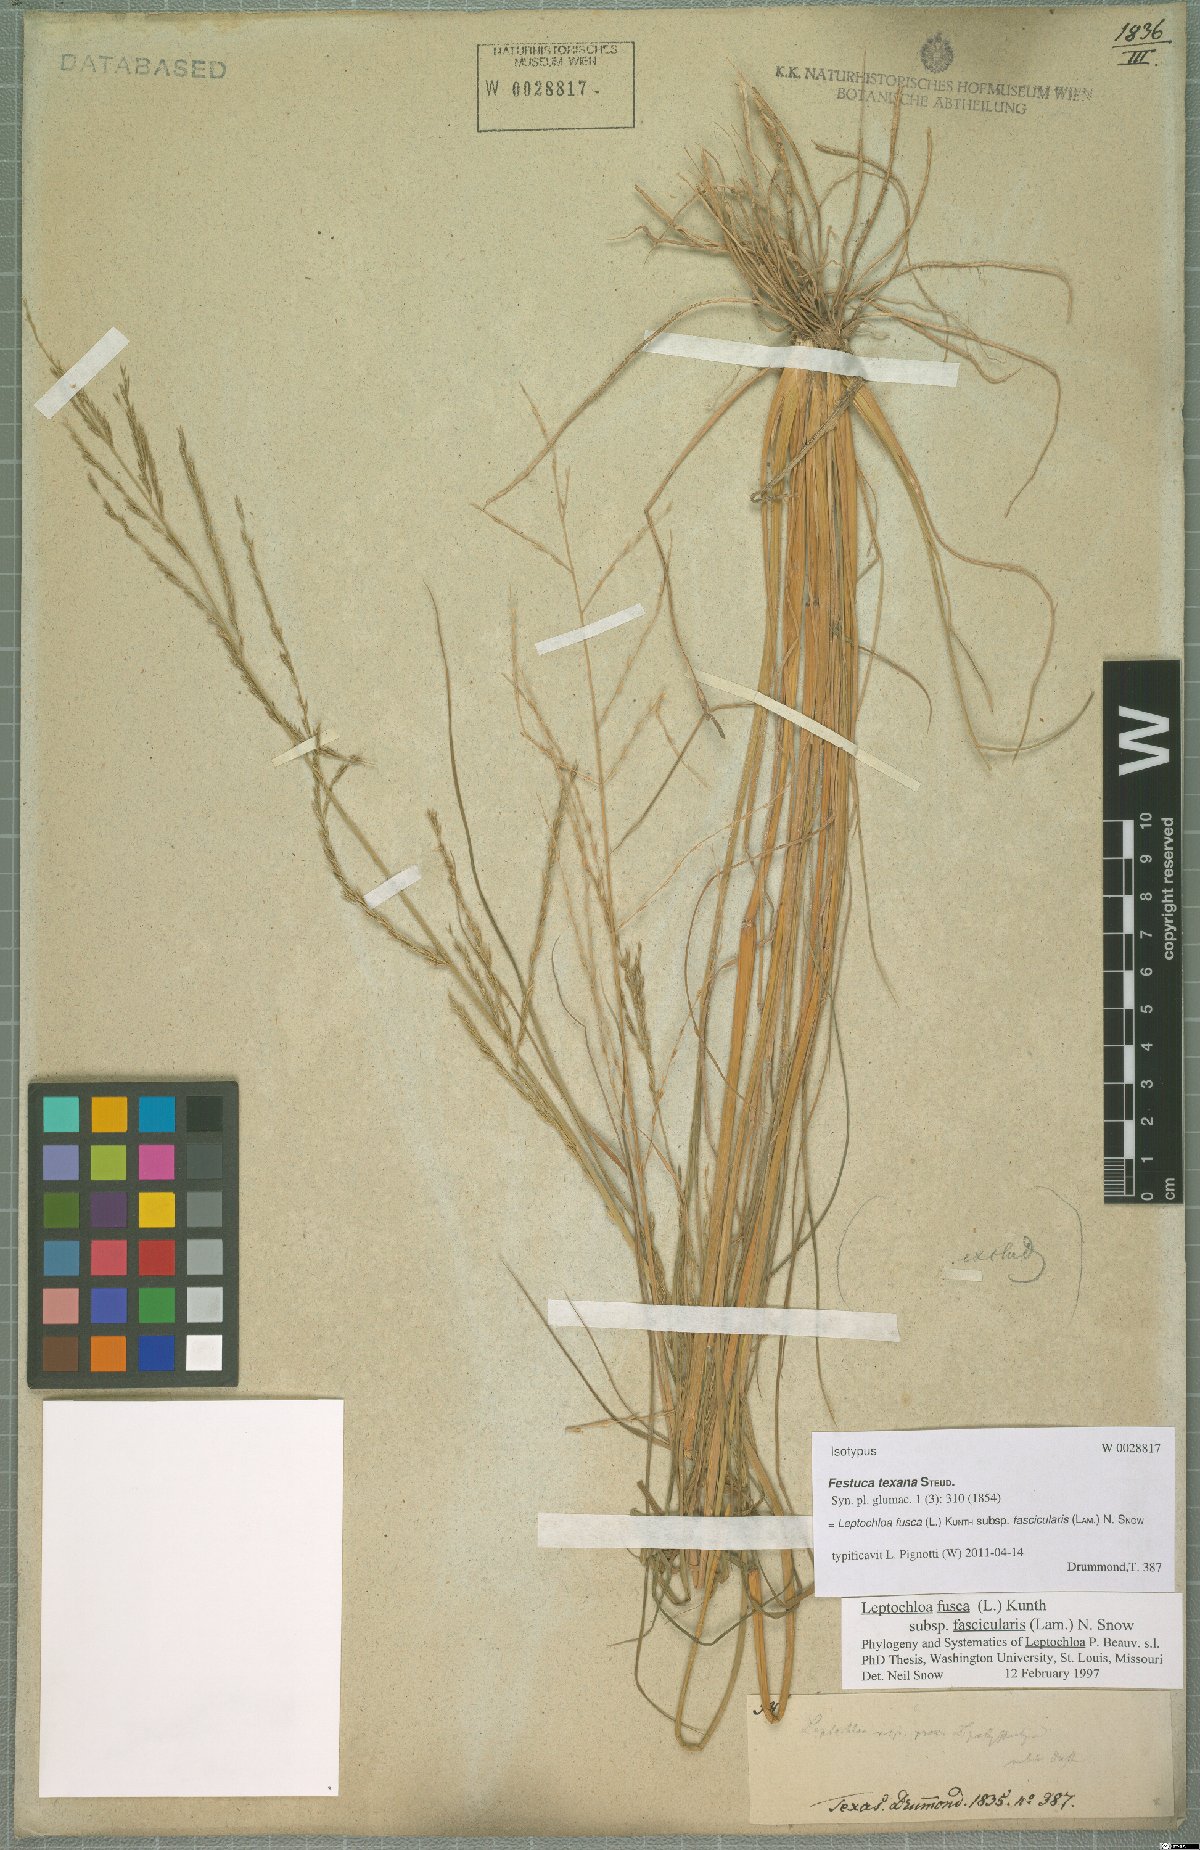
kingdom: Plantae
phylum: Tracheophyta
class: Liliopsida
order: Poales
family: Poaceae
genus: Diplachne
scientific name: Diplachne fusca
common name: Brown beetle grass
